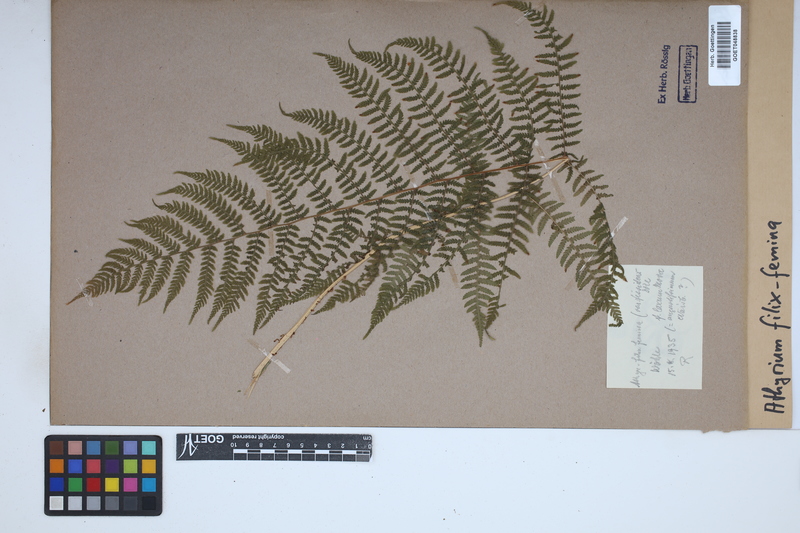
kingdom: Plantae
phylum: Tracheophyta
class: Polypodiopsida
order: Polypodiales
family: Athyriaceae
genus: Athyrium
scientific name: Athyrium filix-femina
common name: Lady fern
